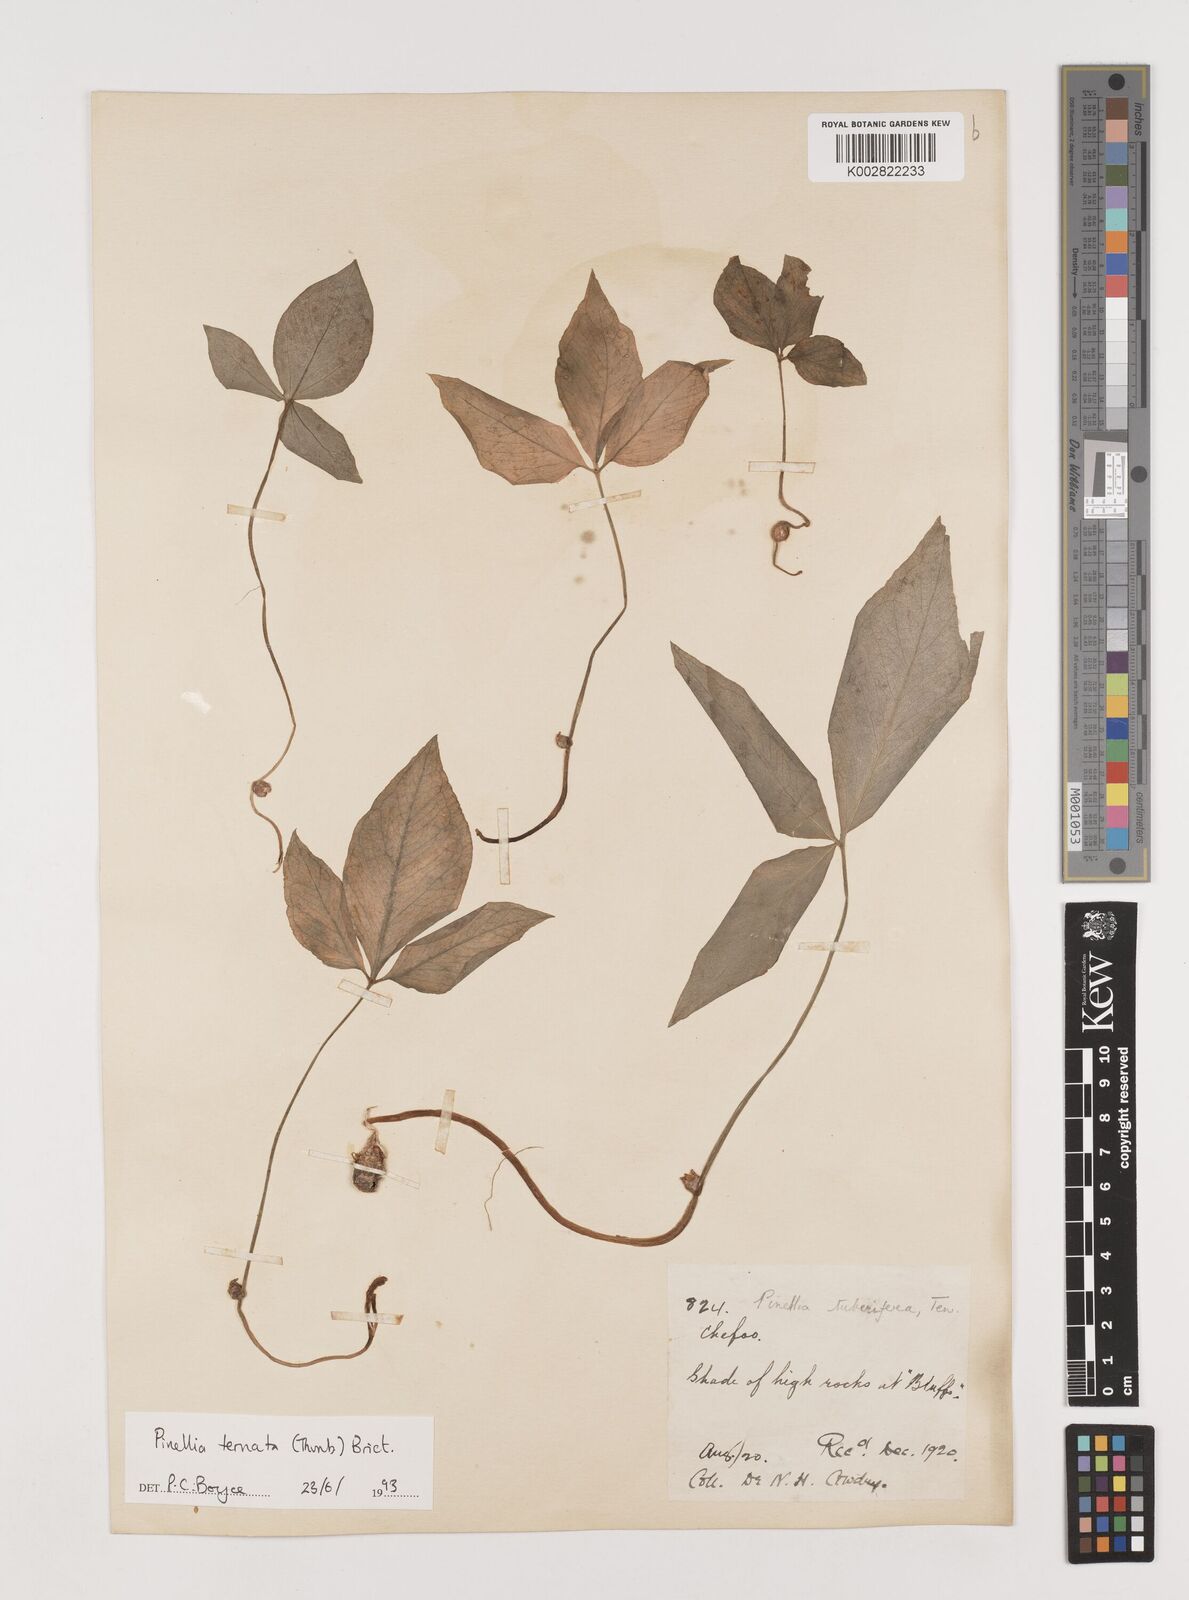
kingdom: Plantae
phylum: Tracheophyta
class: Liliopsida
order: Alismatales
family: Araceae
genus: Pinellia
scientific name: Pinellia ternata
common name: Pinellia
